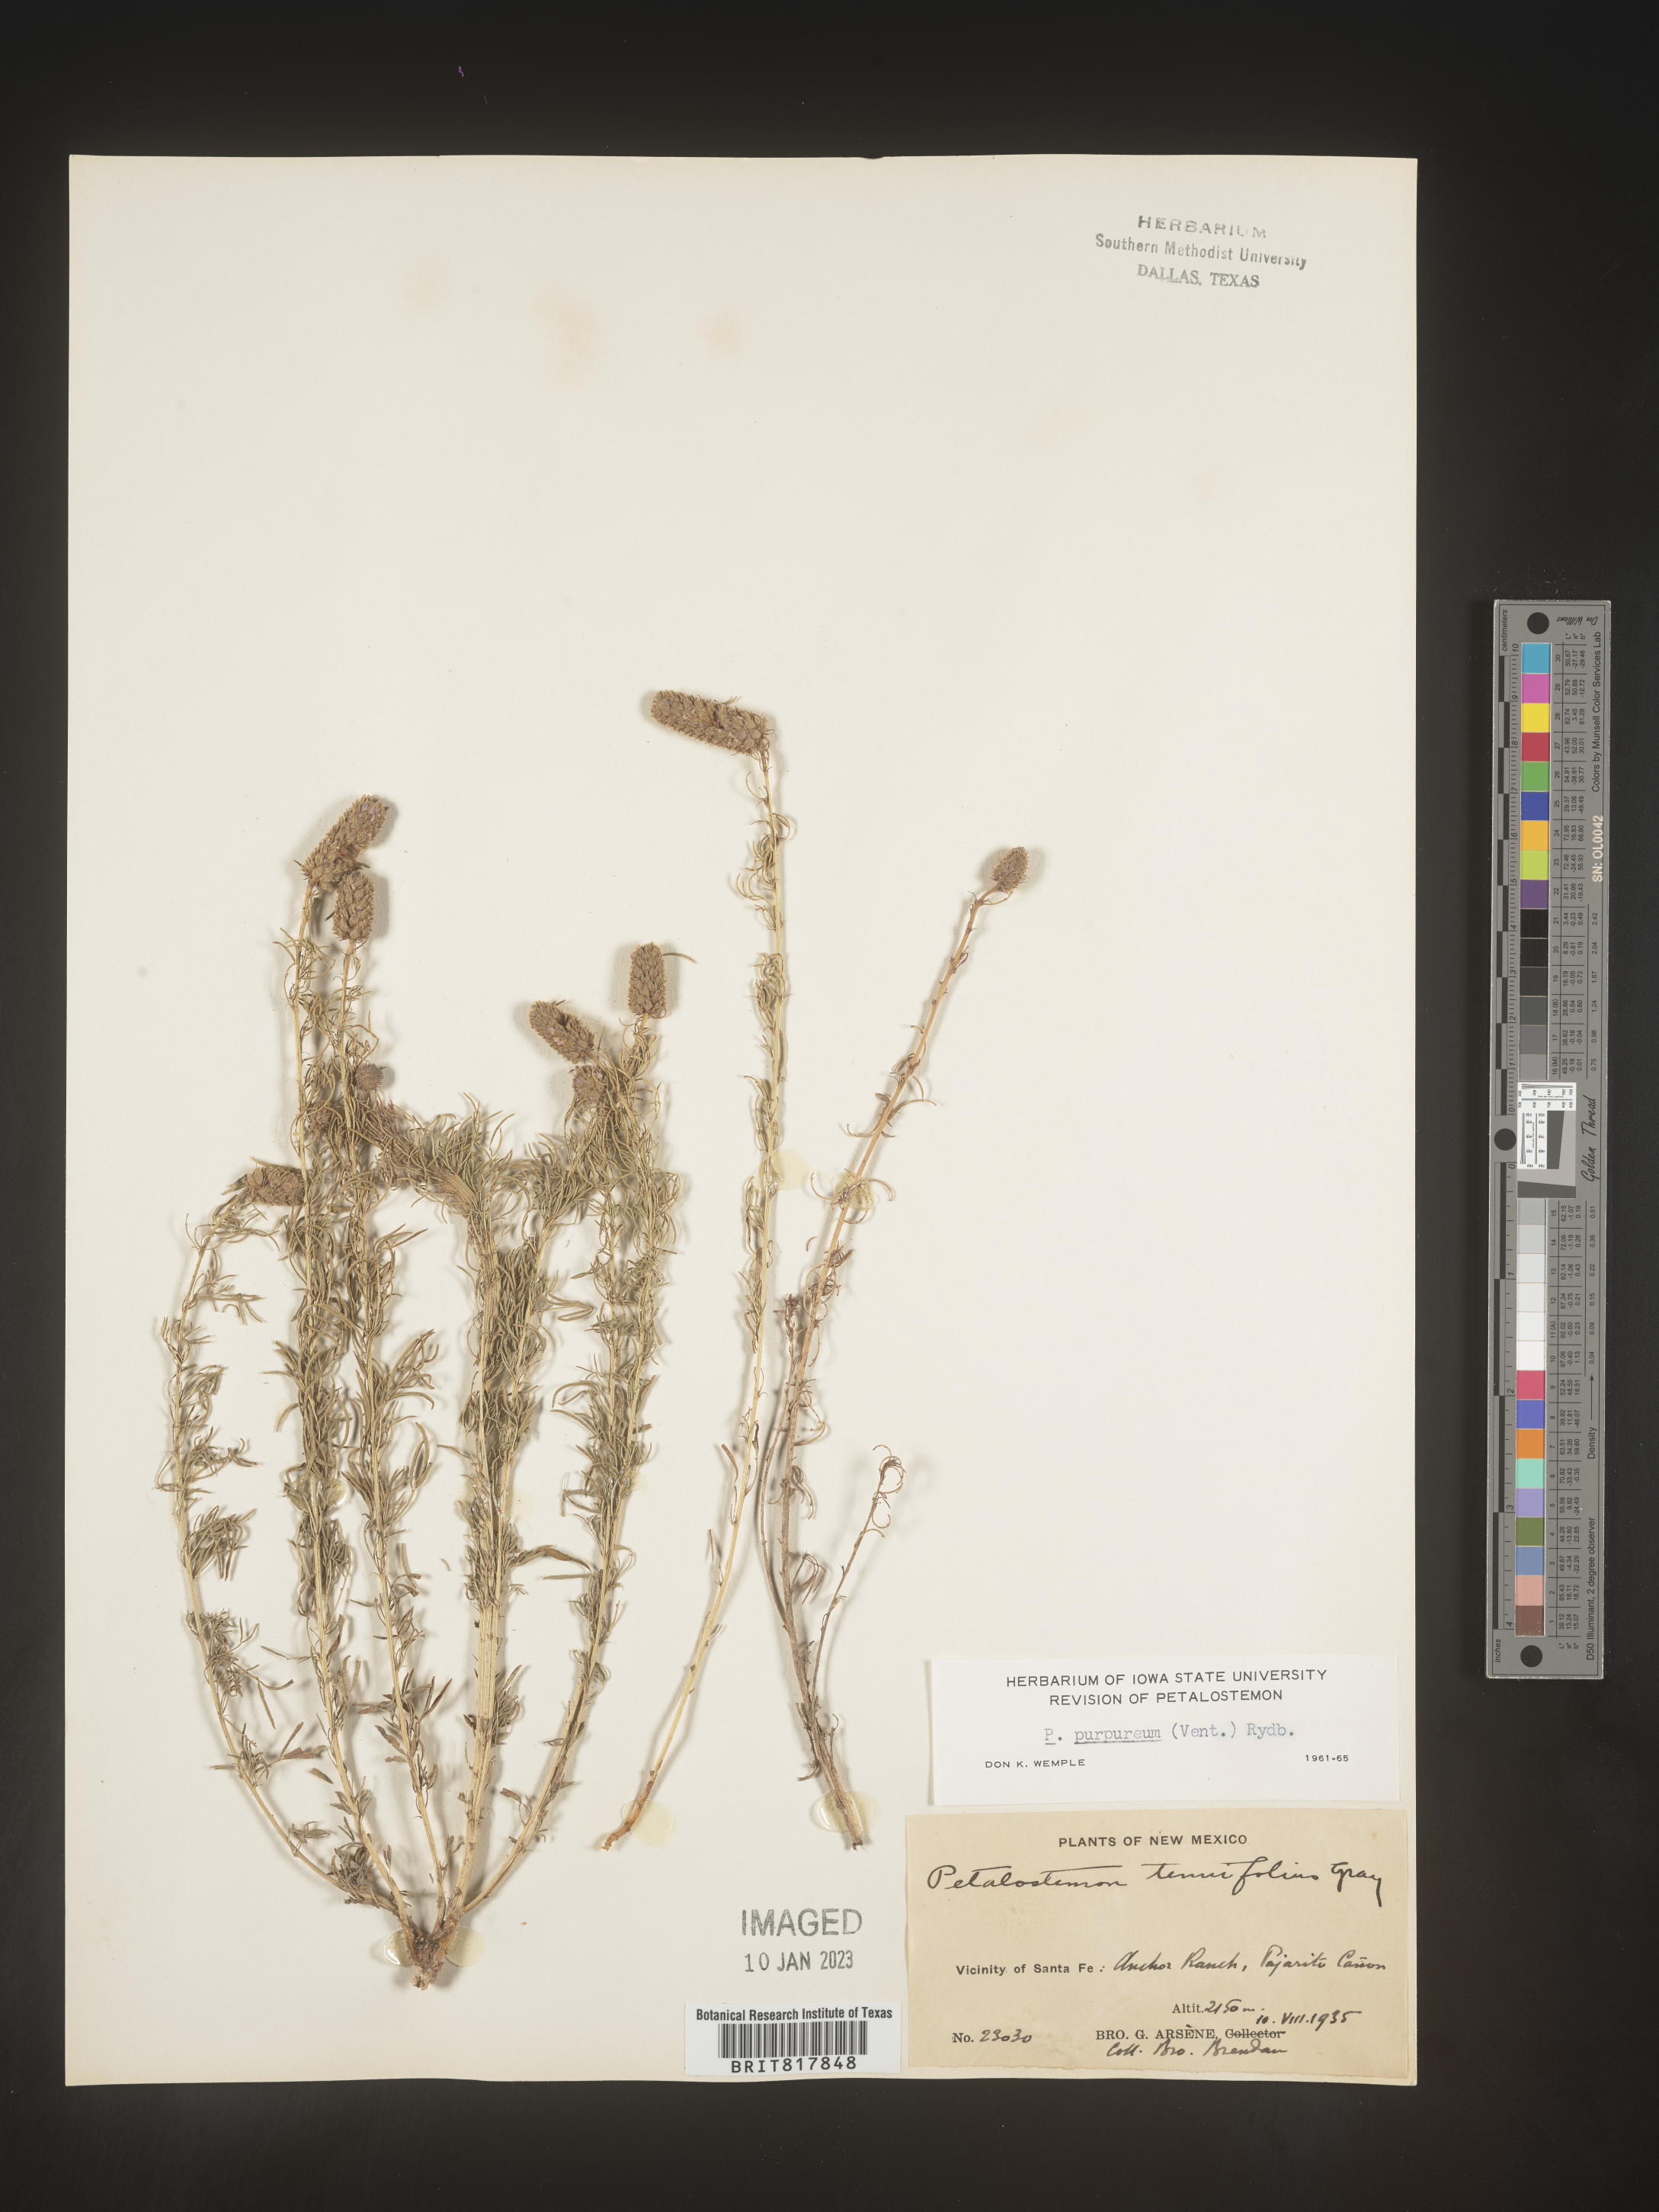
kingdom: Plantae
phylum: Tracheophyta
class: Magnoliopsida
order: Fabales
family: Fabaceae
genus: Dalea
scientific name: Dalea purpurea
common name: Purple prairie-clover
